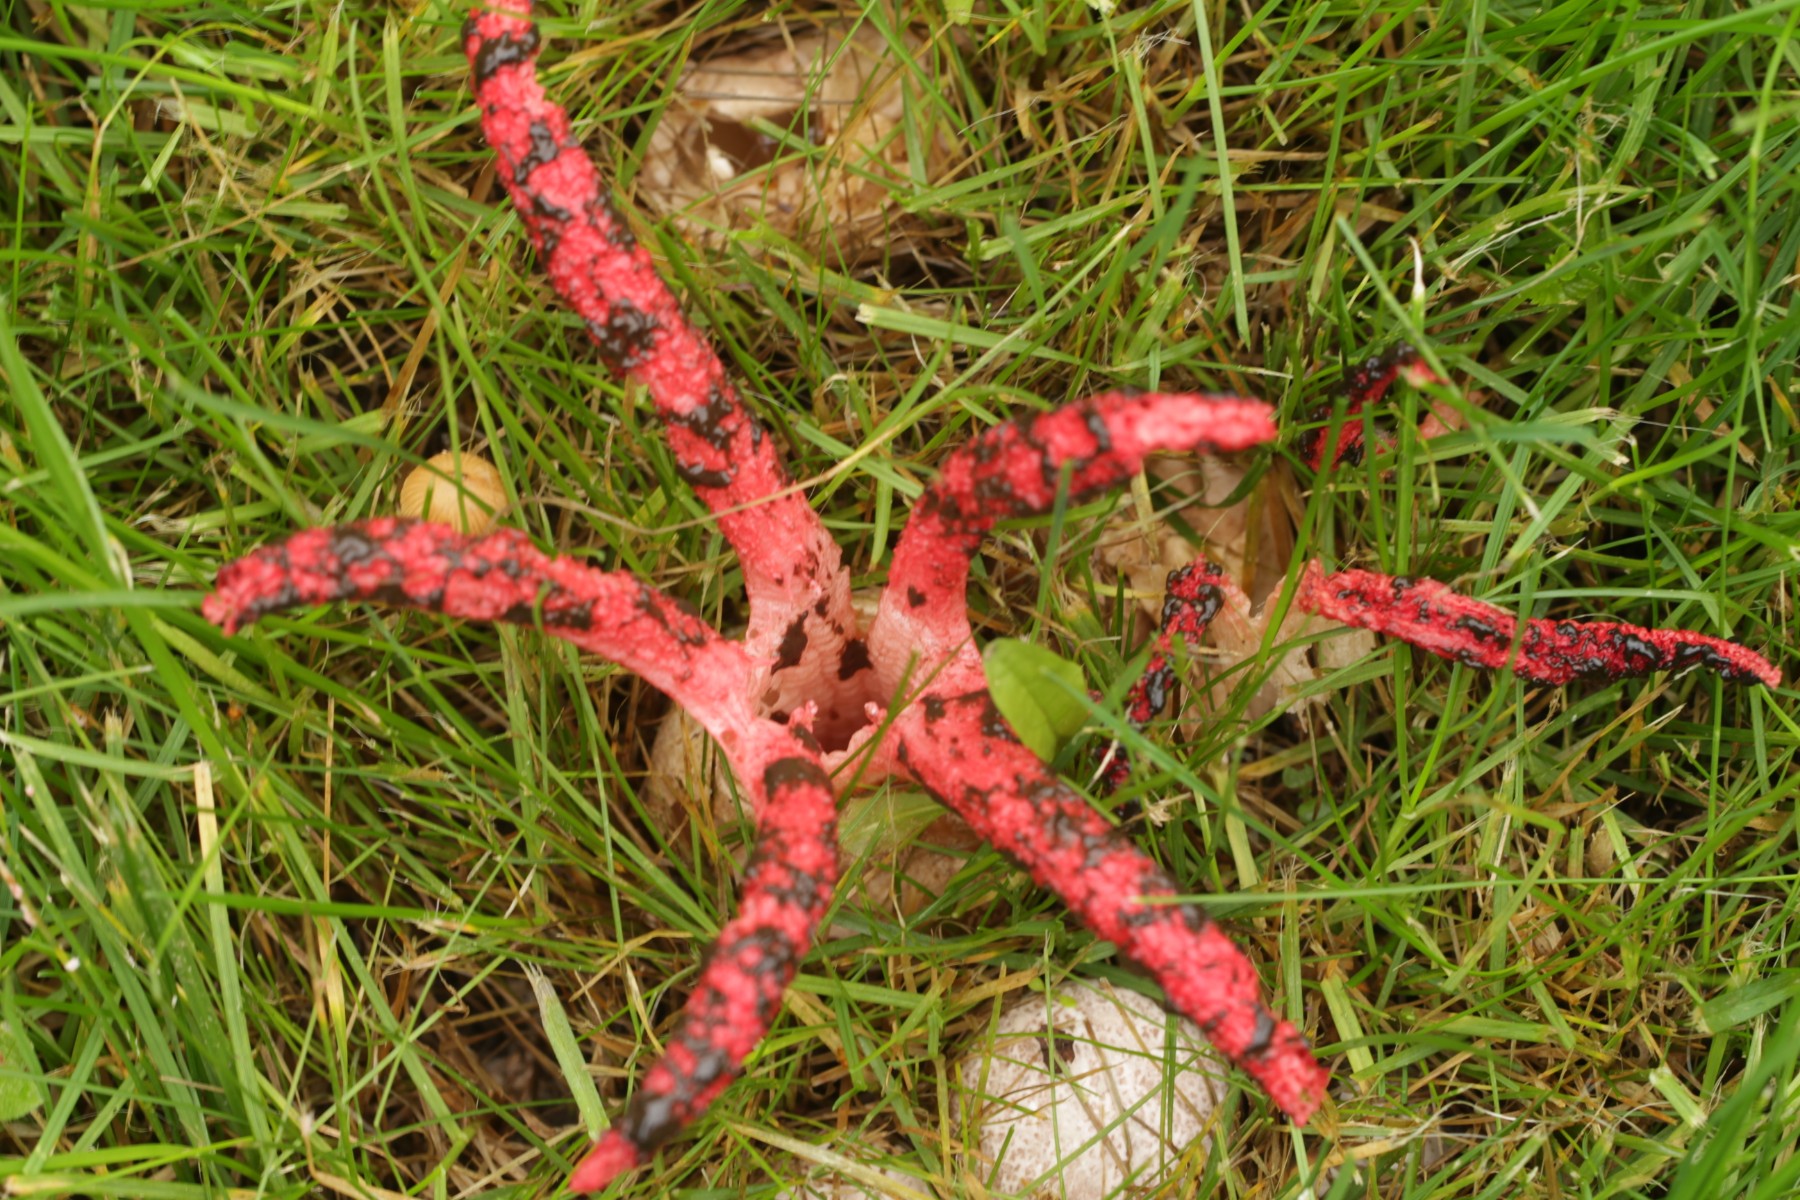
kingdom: Fungi
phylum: Basidiomycota
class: Agaricomycetes
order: Phallales
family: Phallaceae
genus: Clathrus
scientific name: Clathrus archeri
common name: blækspruttesvamp
